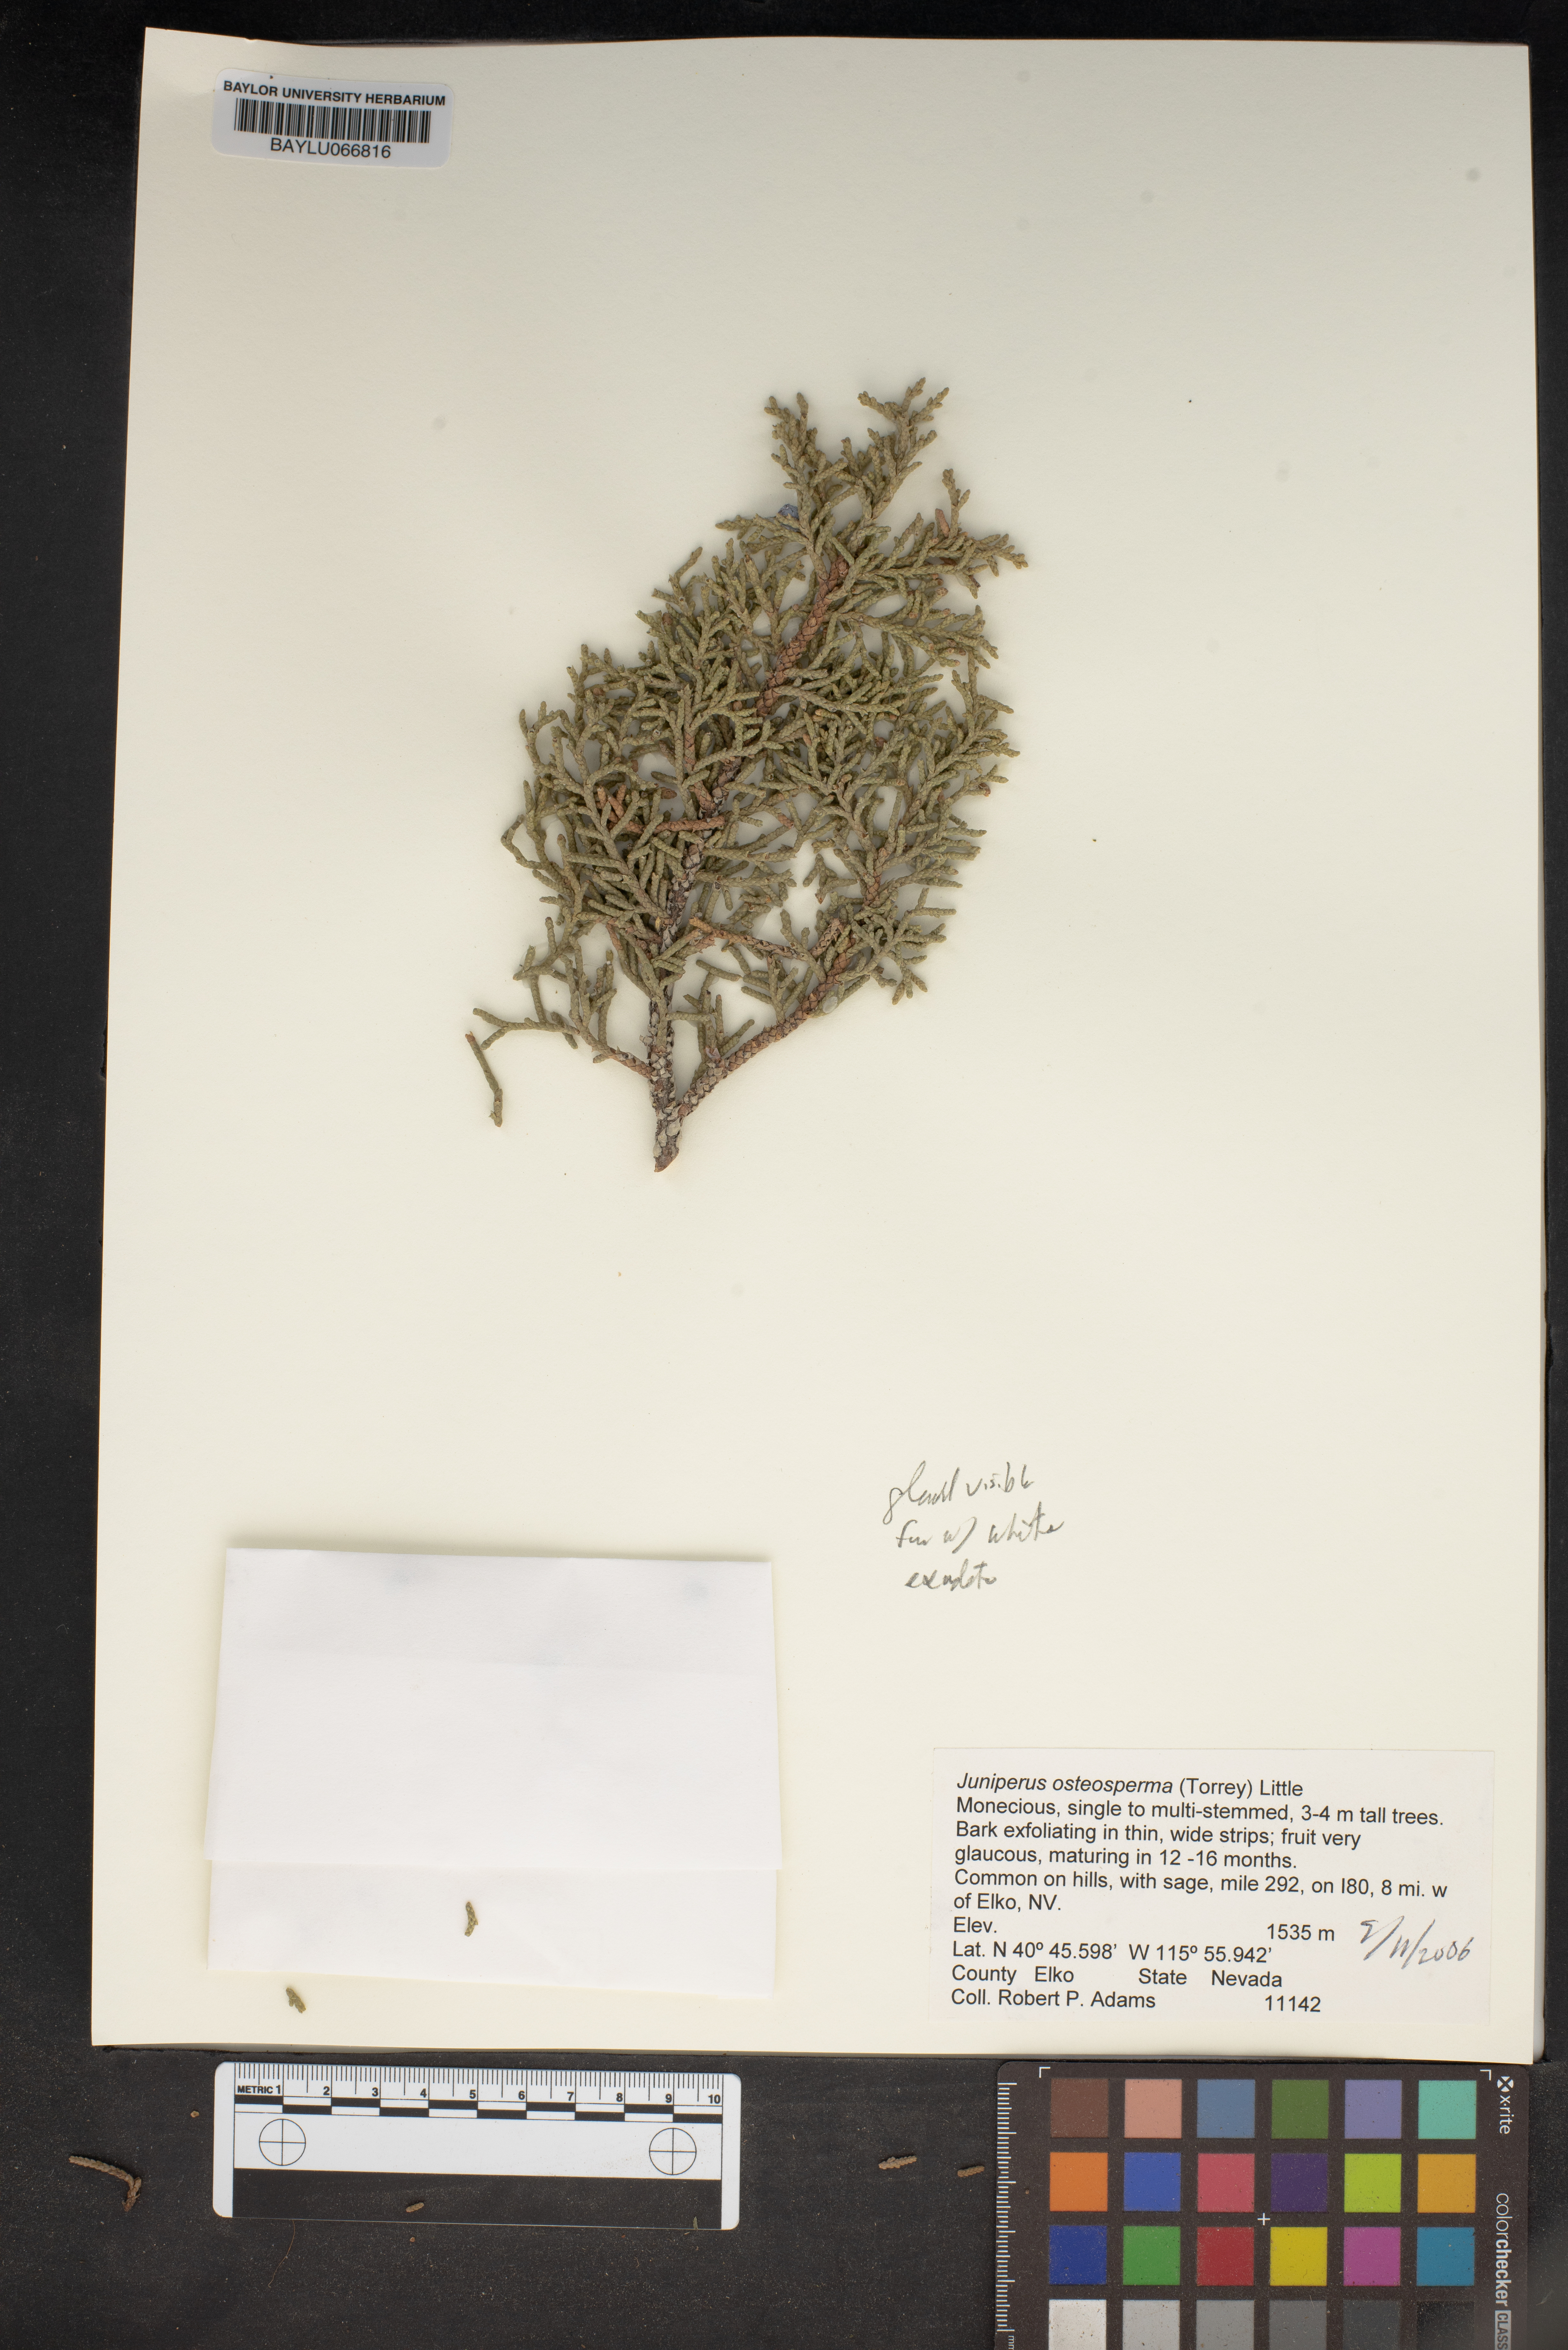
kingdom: Plantae
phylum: Tracheophyta
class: Pinopsida
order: Pinales
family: Cupressaceae
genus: Juniperus
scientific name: Juniperus osteosperma
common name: Utah juniper
